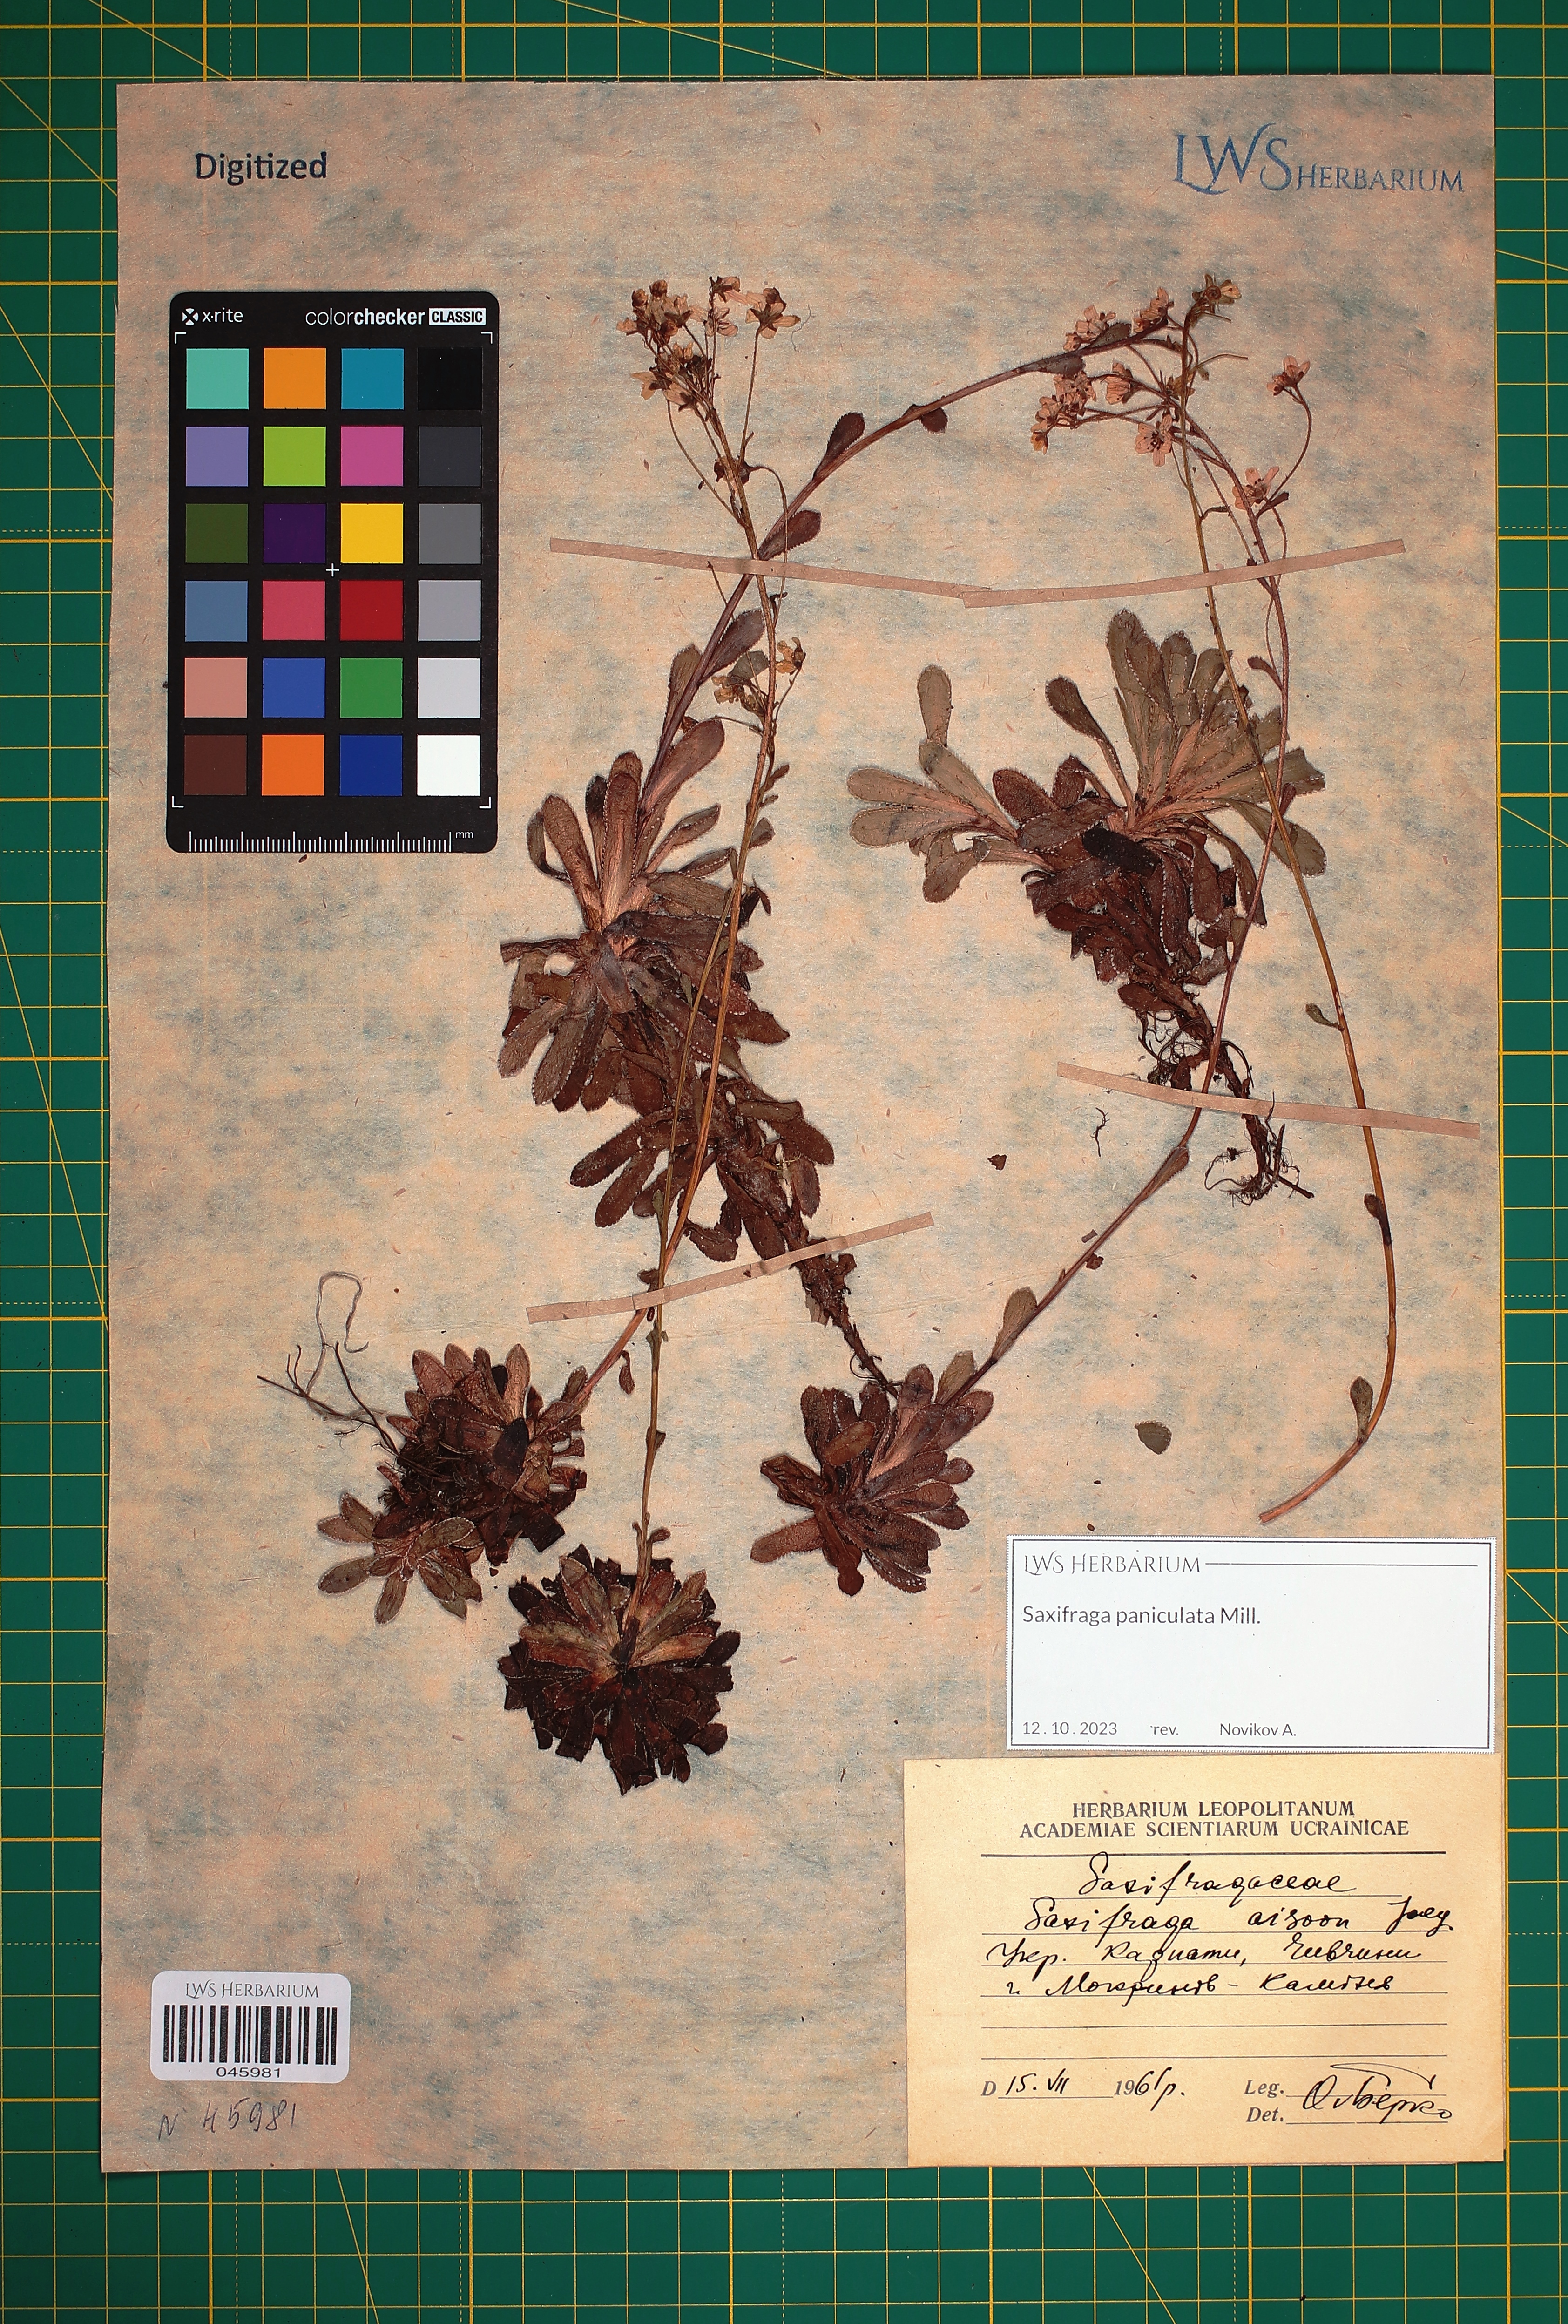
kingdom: Plantae
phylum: Tracheophyta
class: Magnoliopsida
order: Saxifragales
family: Saxifragaceae
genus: Saxifraga
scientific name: Saxifraga paniculata
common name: Livelong saxifrage
